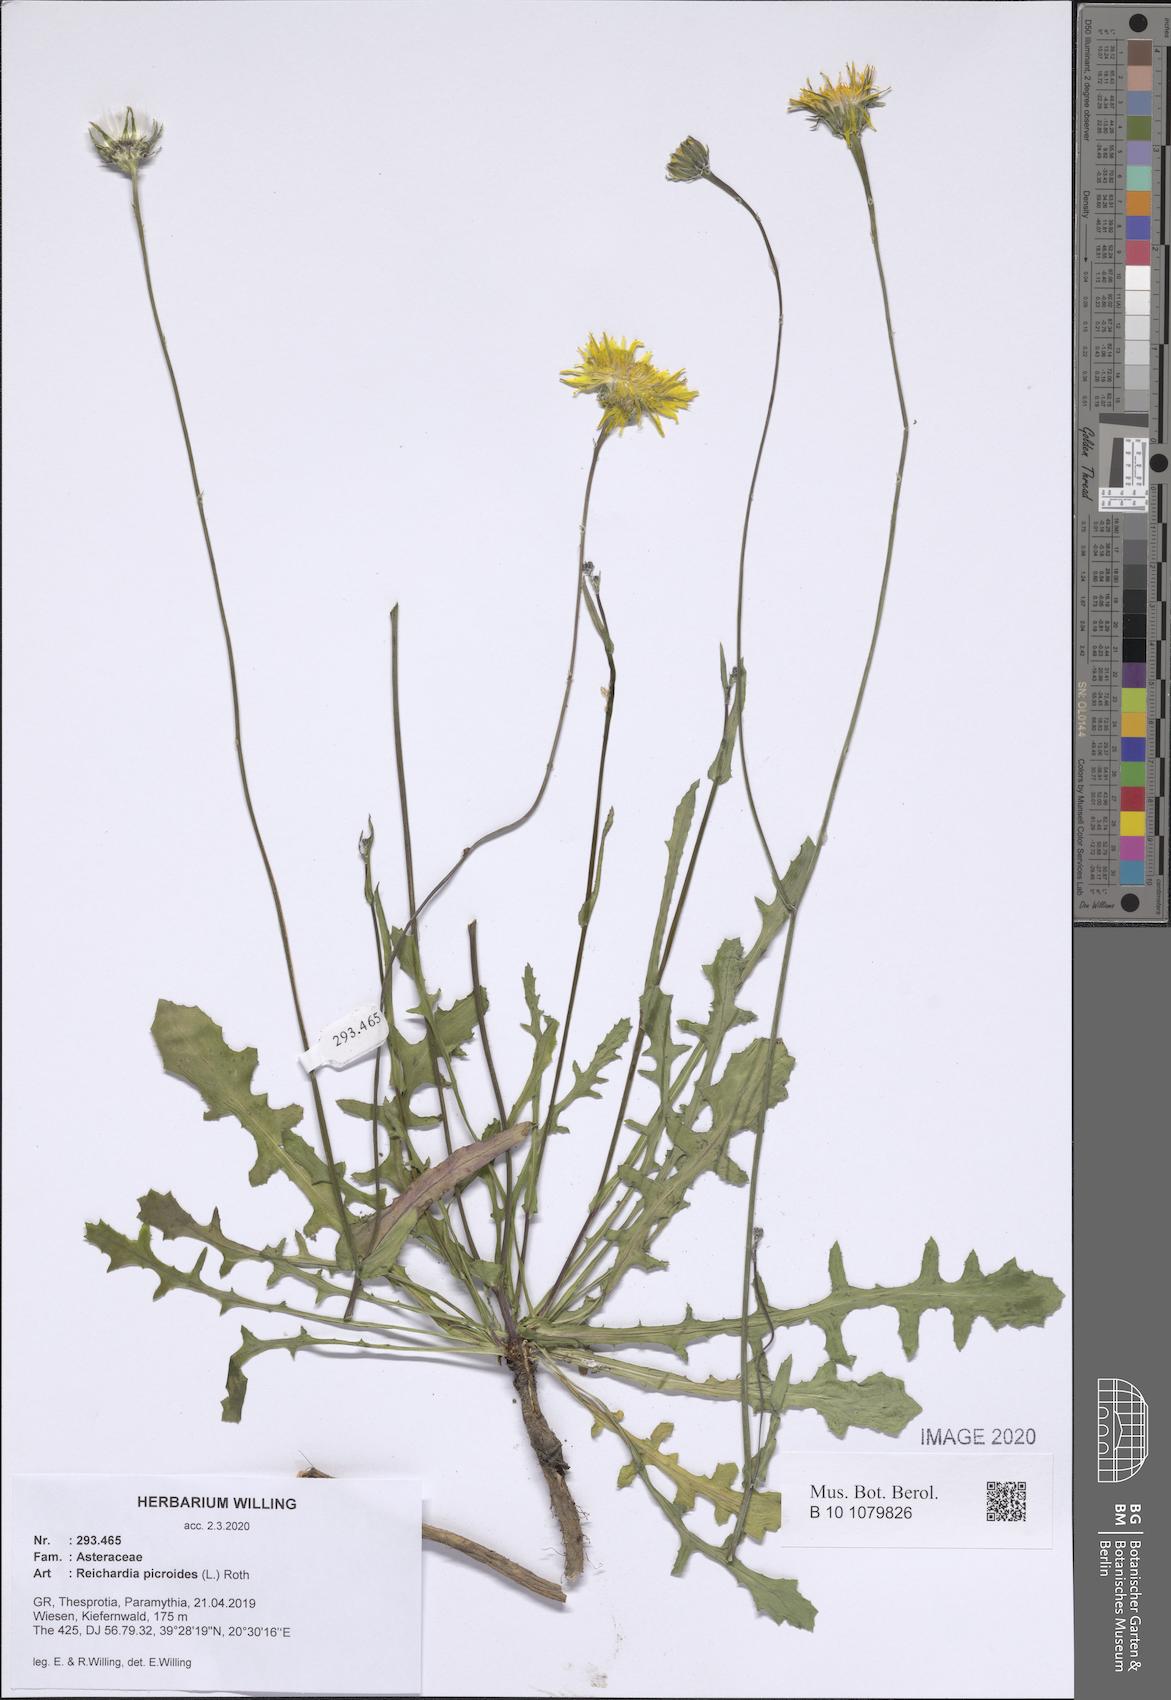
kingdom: Plantae
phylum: Tracheophyta
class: Magnoliopsida
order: Asterales
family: Asteraceae
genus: Reichardia
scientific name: Reichardia picroides
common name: Common brighteyes
